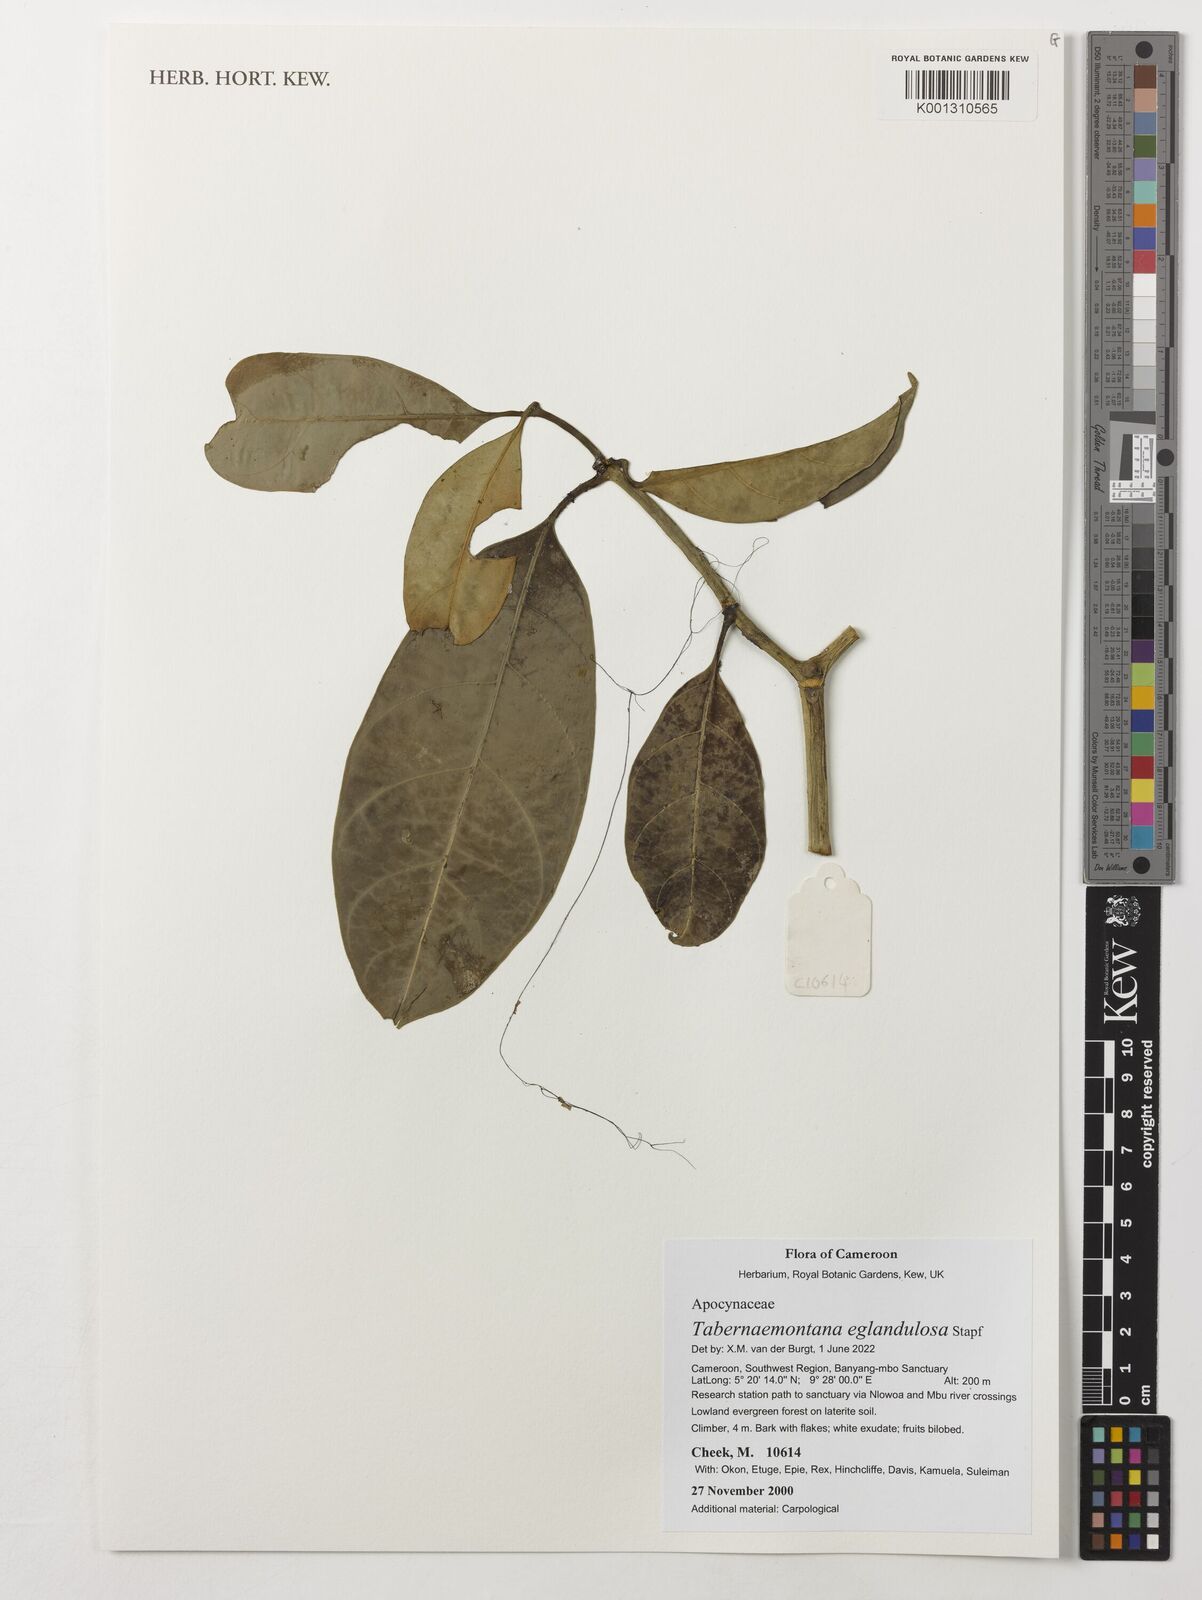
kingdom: Plantae
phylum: Tracheophyta
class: Magnoliopsida
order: Gentianales
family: Apocynaceae
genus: Tabernaemontana
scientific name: Tabernaemontana eglandulosa
